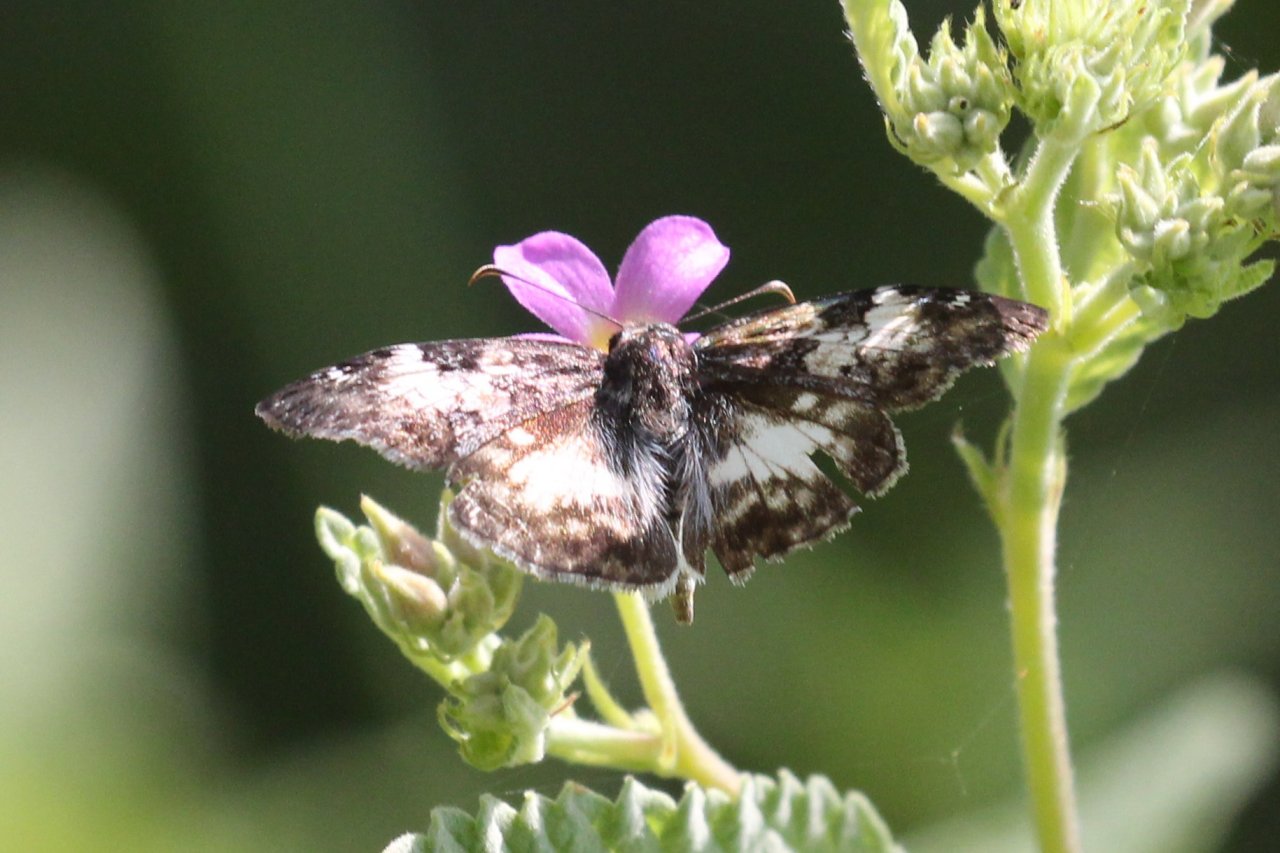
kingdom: Animalia
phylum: Arthropoda
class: Insecta
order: Lepidoptera
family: Hesperiidae
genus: Chiomara
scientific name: Chiomara asychis
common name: White-patched Skipper
